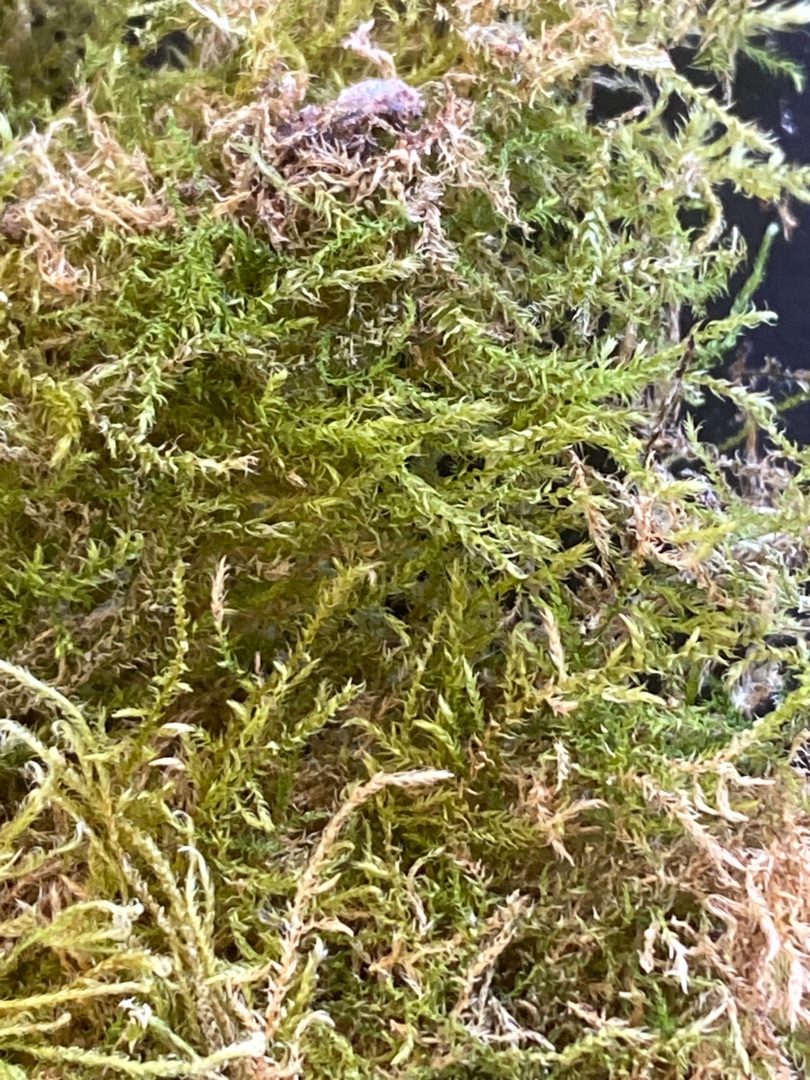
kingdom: Plantae
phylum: Bryophyta
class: Bryopsida
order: Hypnales
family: Brachytheciaceae
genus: Kindbergia
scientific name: Kindbergia praelonga
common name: Forskelligbladet vortetand
